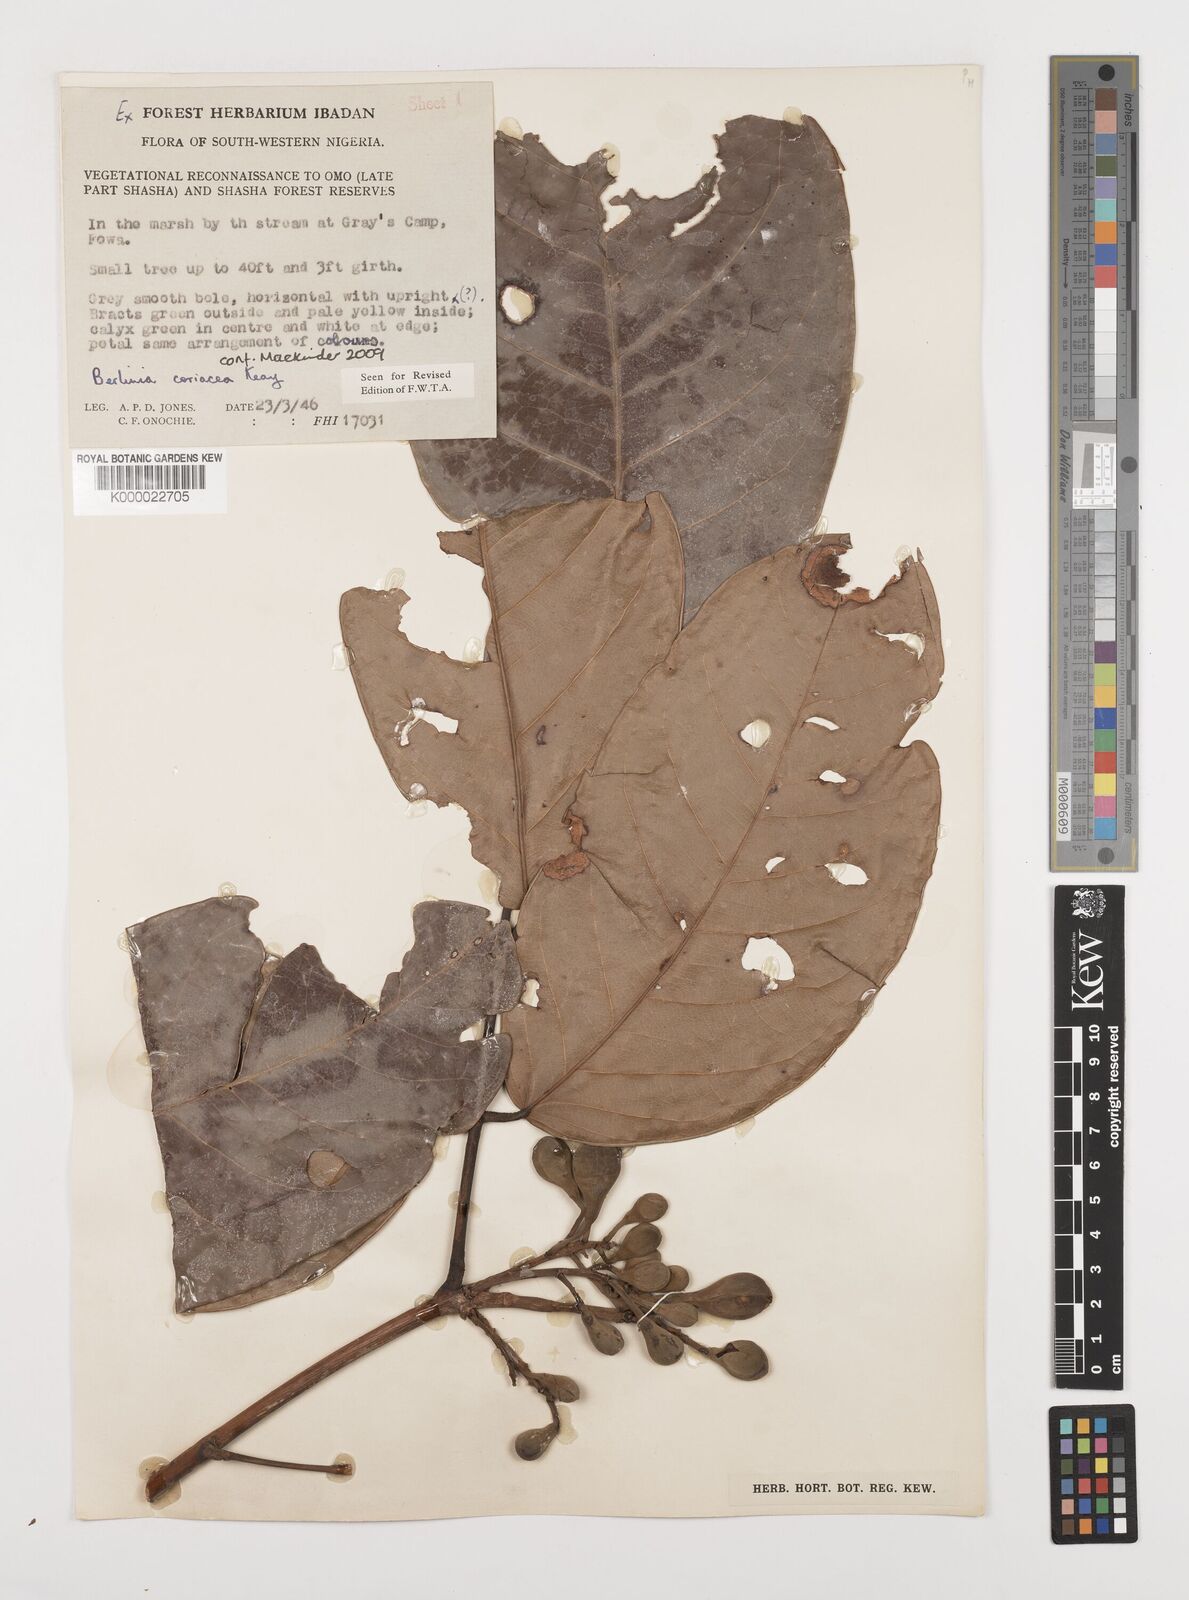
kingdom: Plantae
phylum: Tracheophyta
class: Magnoliopsida
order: Fabales
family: Fabaceae
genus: Berlinia
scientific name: Berlinia coriacea
